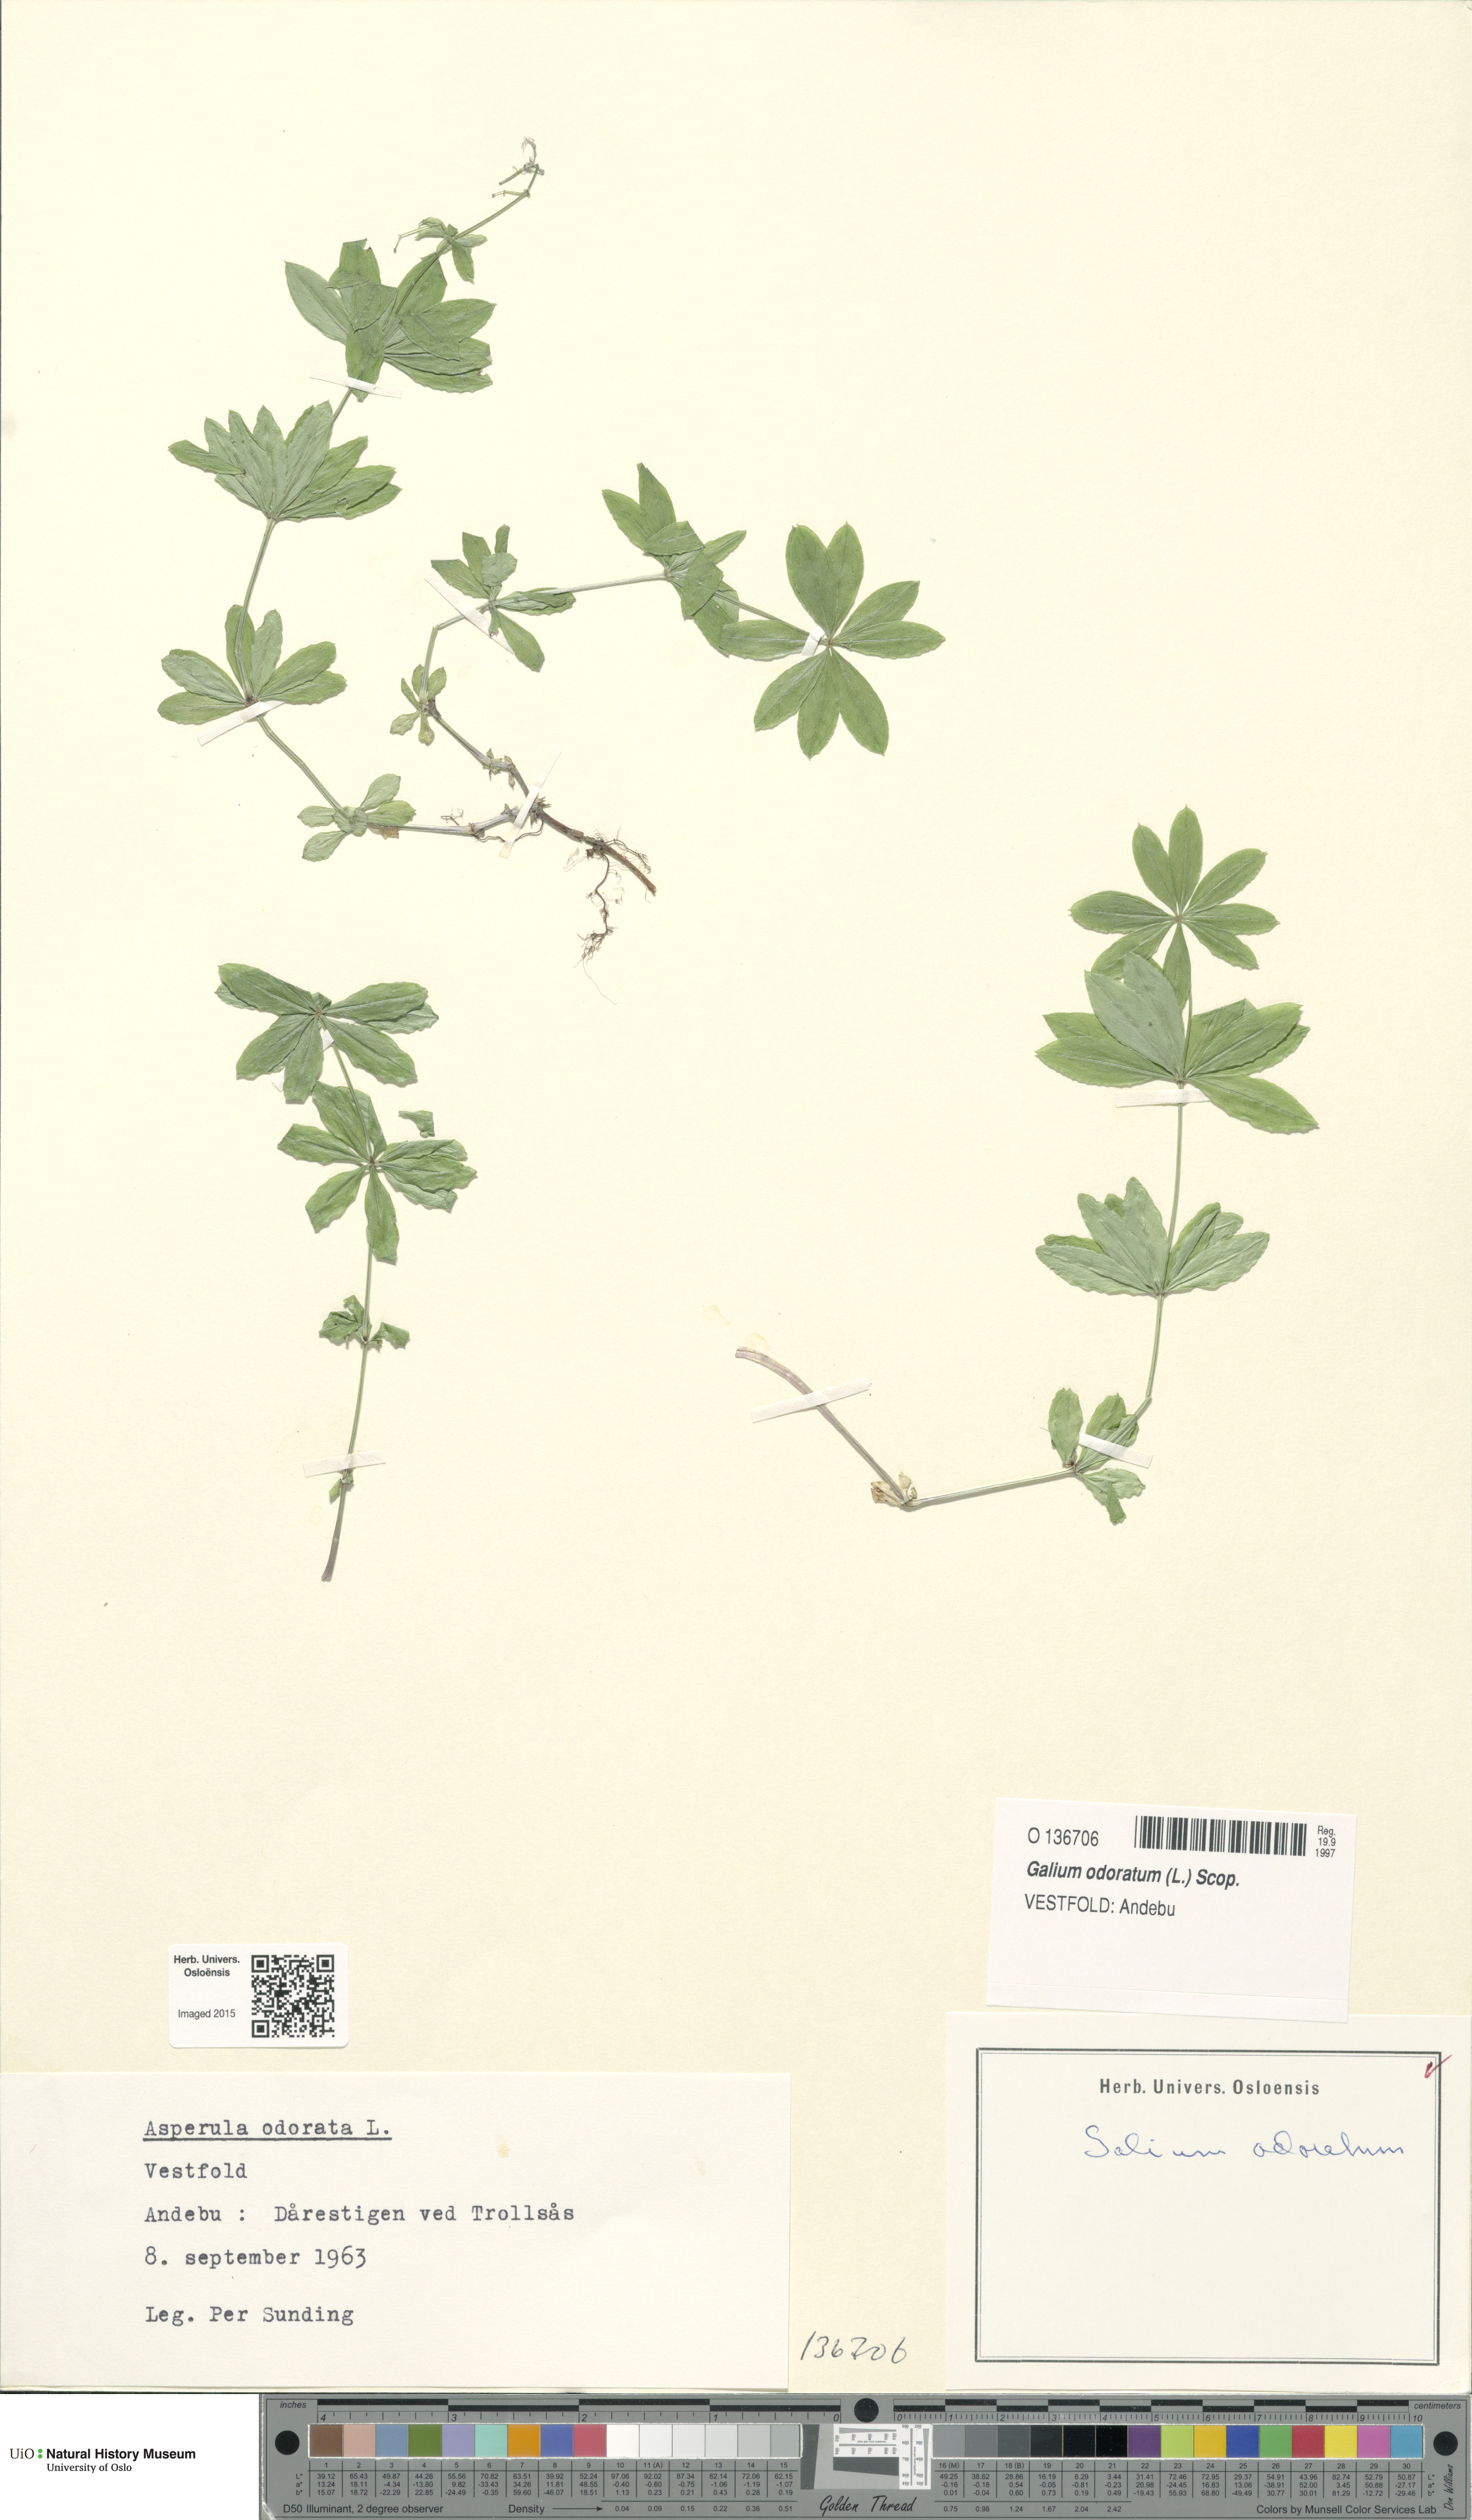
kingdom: Plantae
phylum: Tracheophyta
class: Magnoliopsida
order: Gentianales
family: Rubiaceae
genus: Galium
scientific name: Galium odoratum
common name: Sweet woodruff
